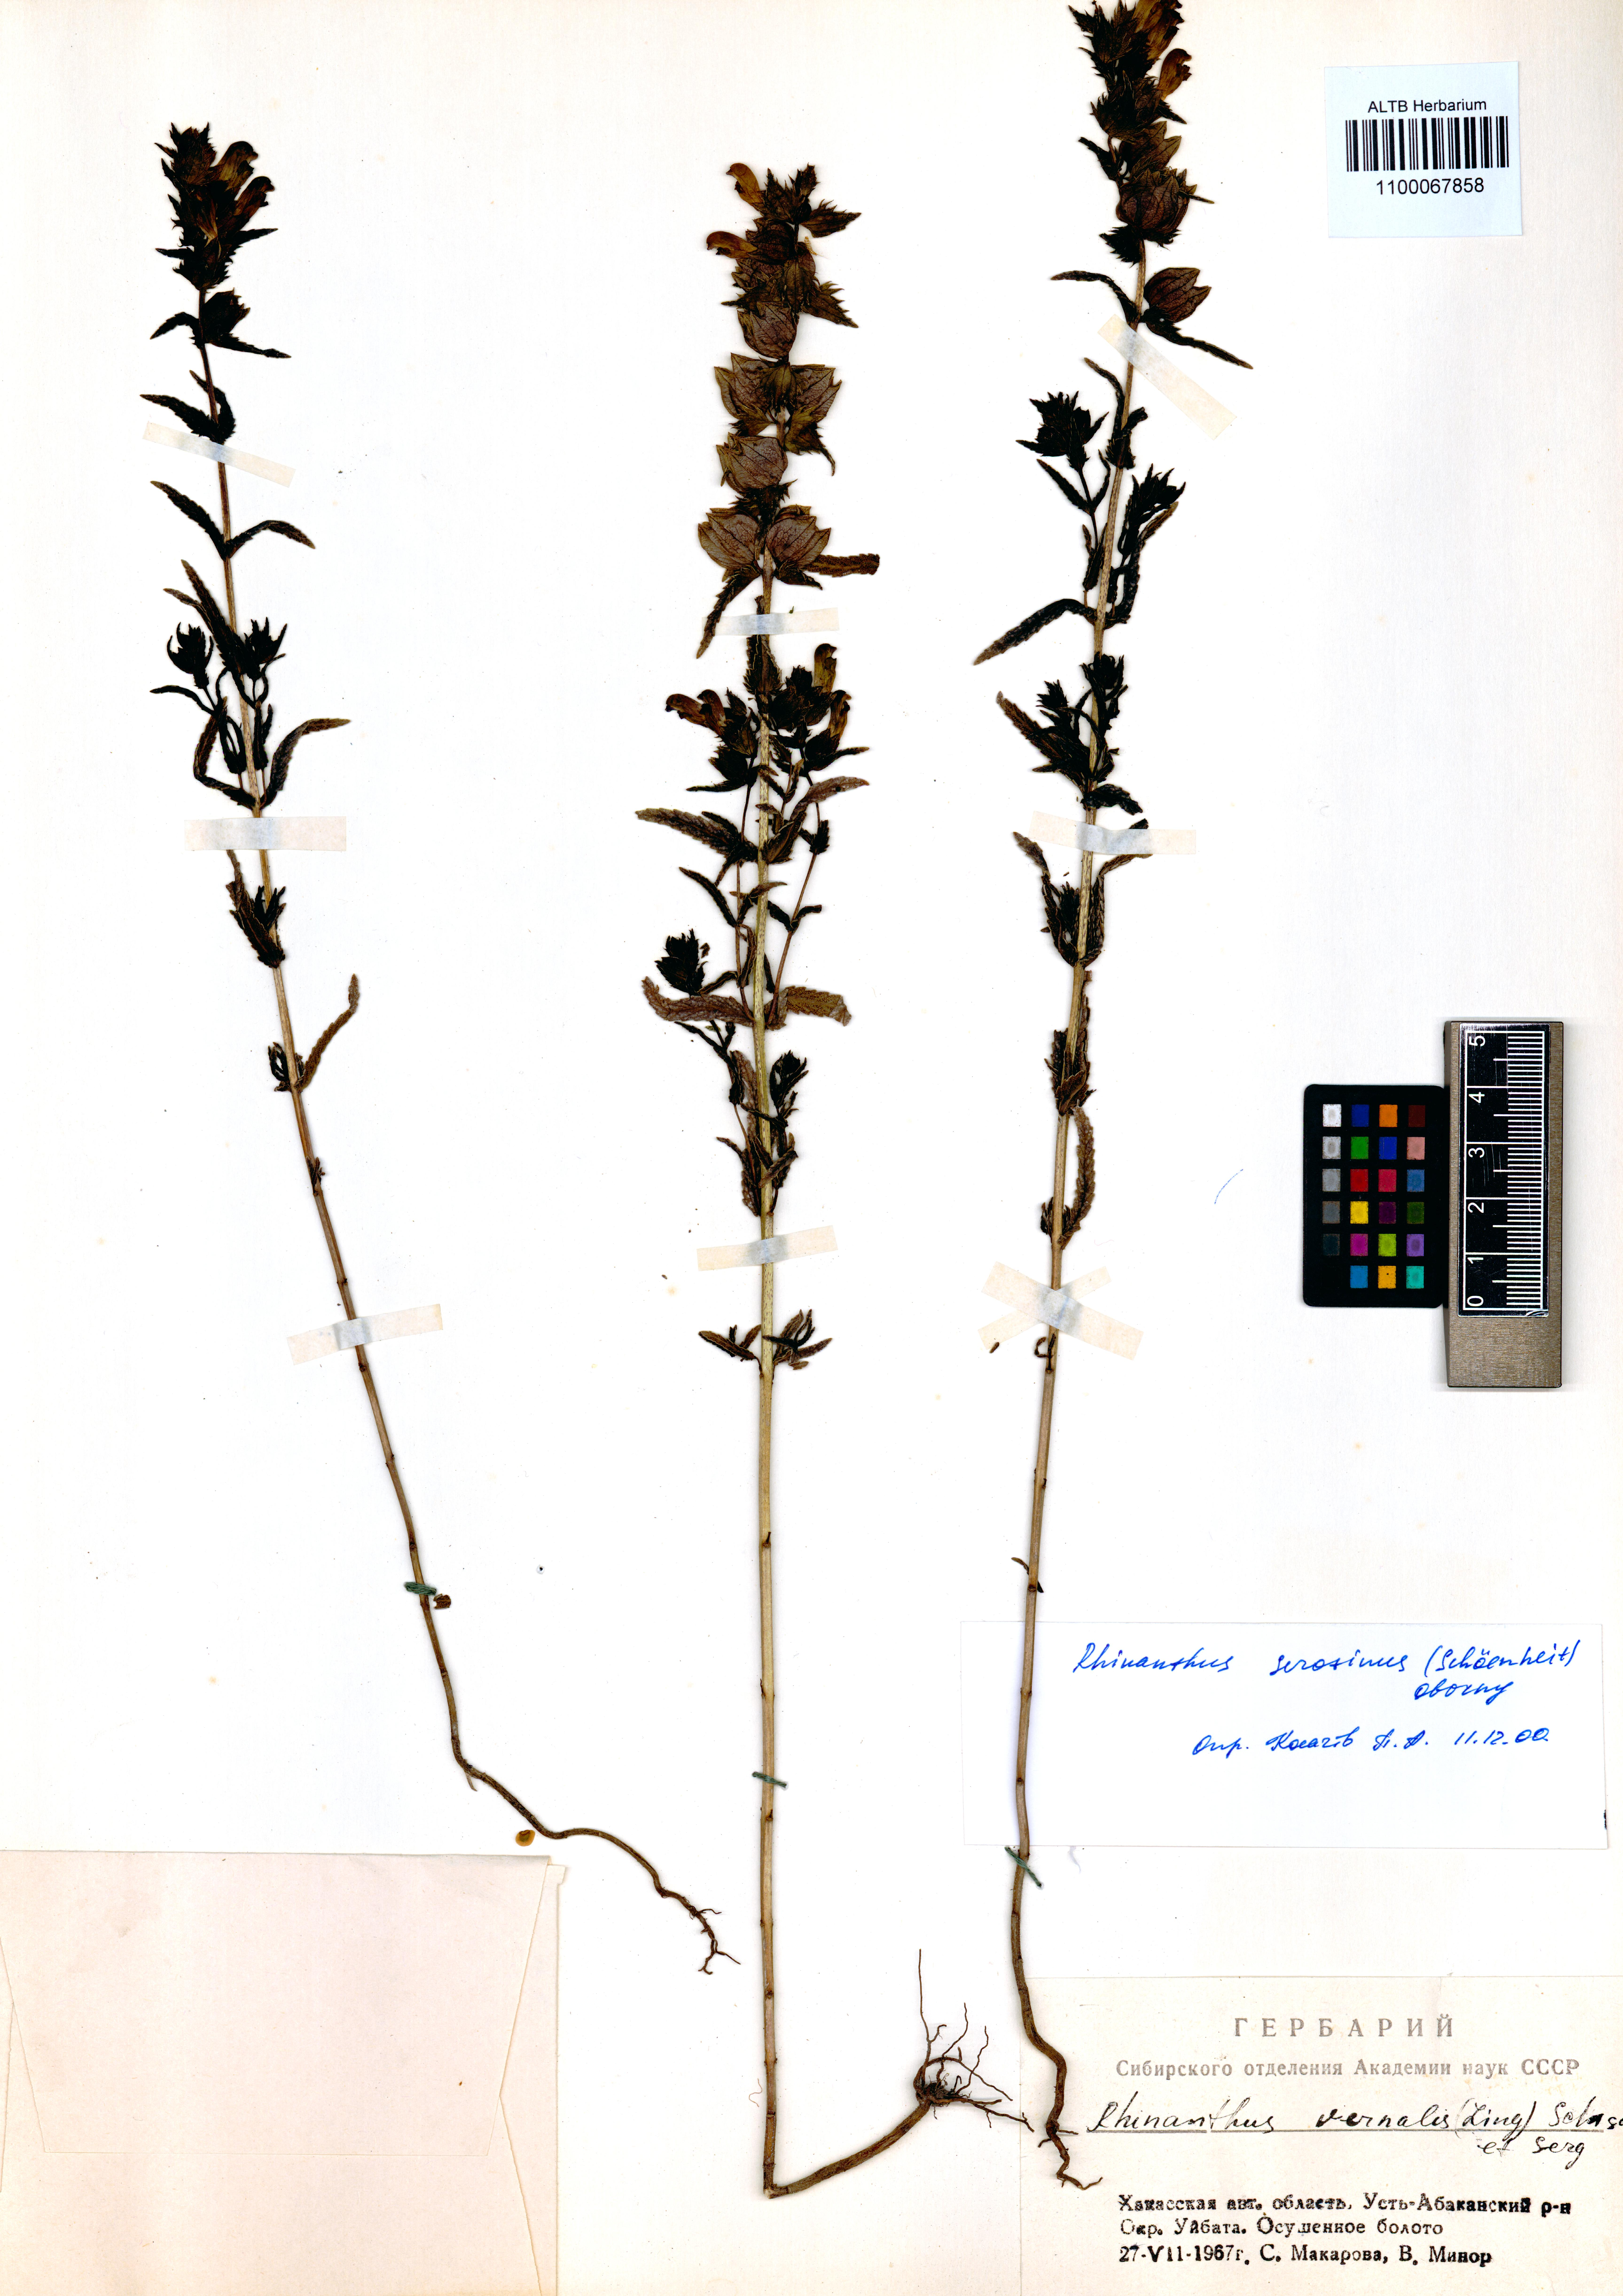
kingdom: Plantae
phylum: Tracheophyta
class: Magnoliopsida
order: Lamiales
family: Orobanchaceae
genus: Rhinanthus
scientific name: Rhinanthus serotinus
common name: Late-flowering yellow rattle
